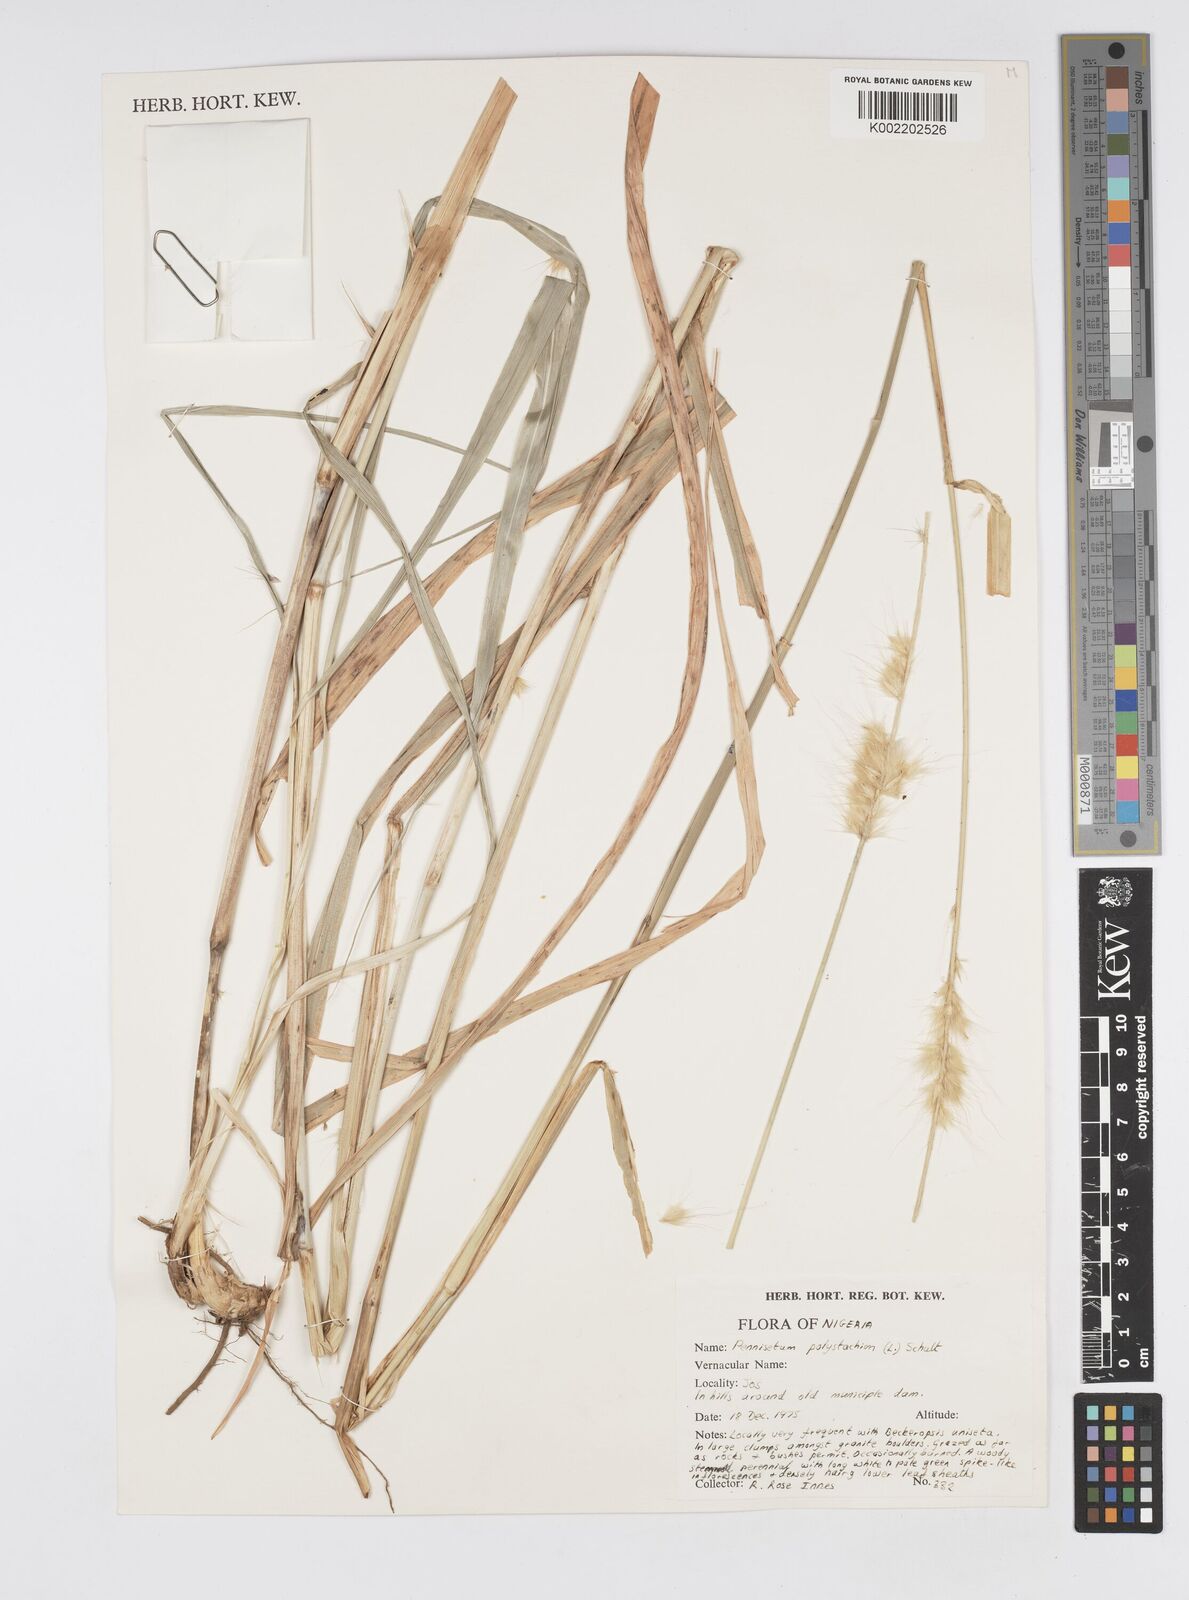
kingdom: Plantae
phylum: Tracheophyta
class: Liliopsida
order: Poales
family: Poaceae
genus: Setaria
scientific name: Setaria parviflora
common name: Knotroot bristle-grass
